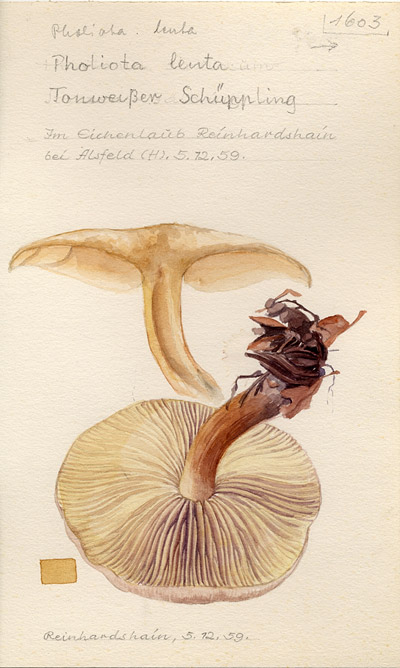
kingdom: Fungi
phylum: Basidiomycota
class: Agaricomycetes
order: Agaricales
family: Strophariaceae
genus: Pholiota
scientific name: Pholiota lenta
